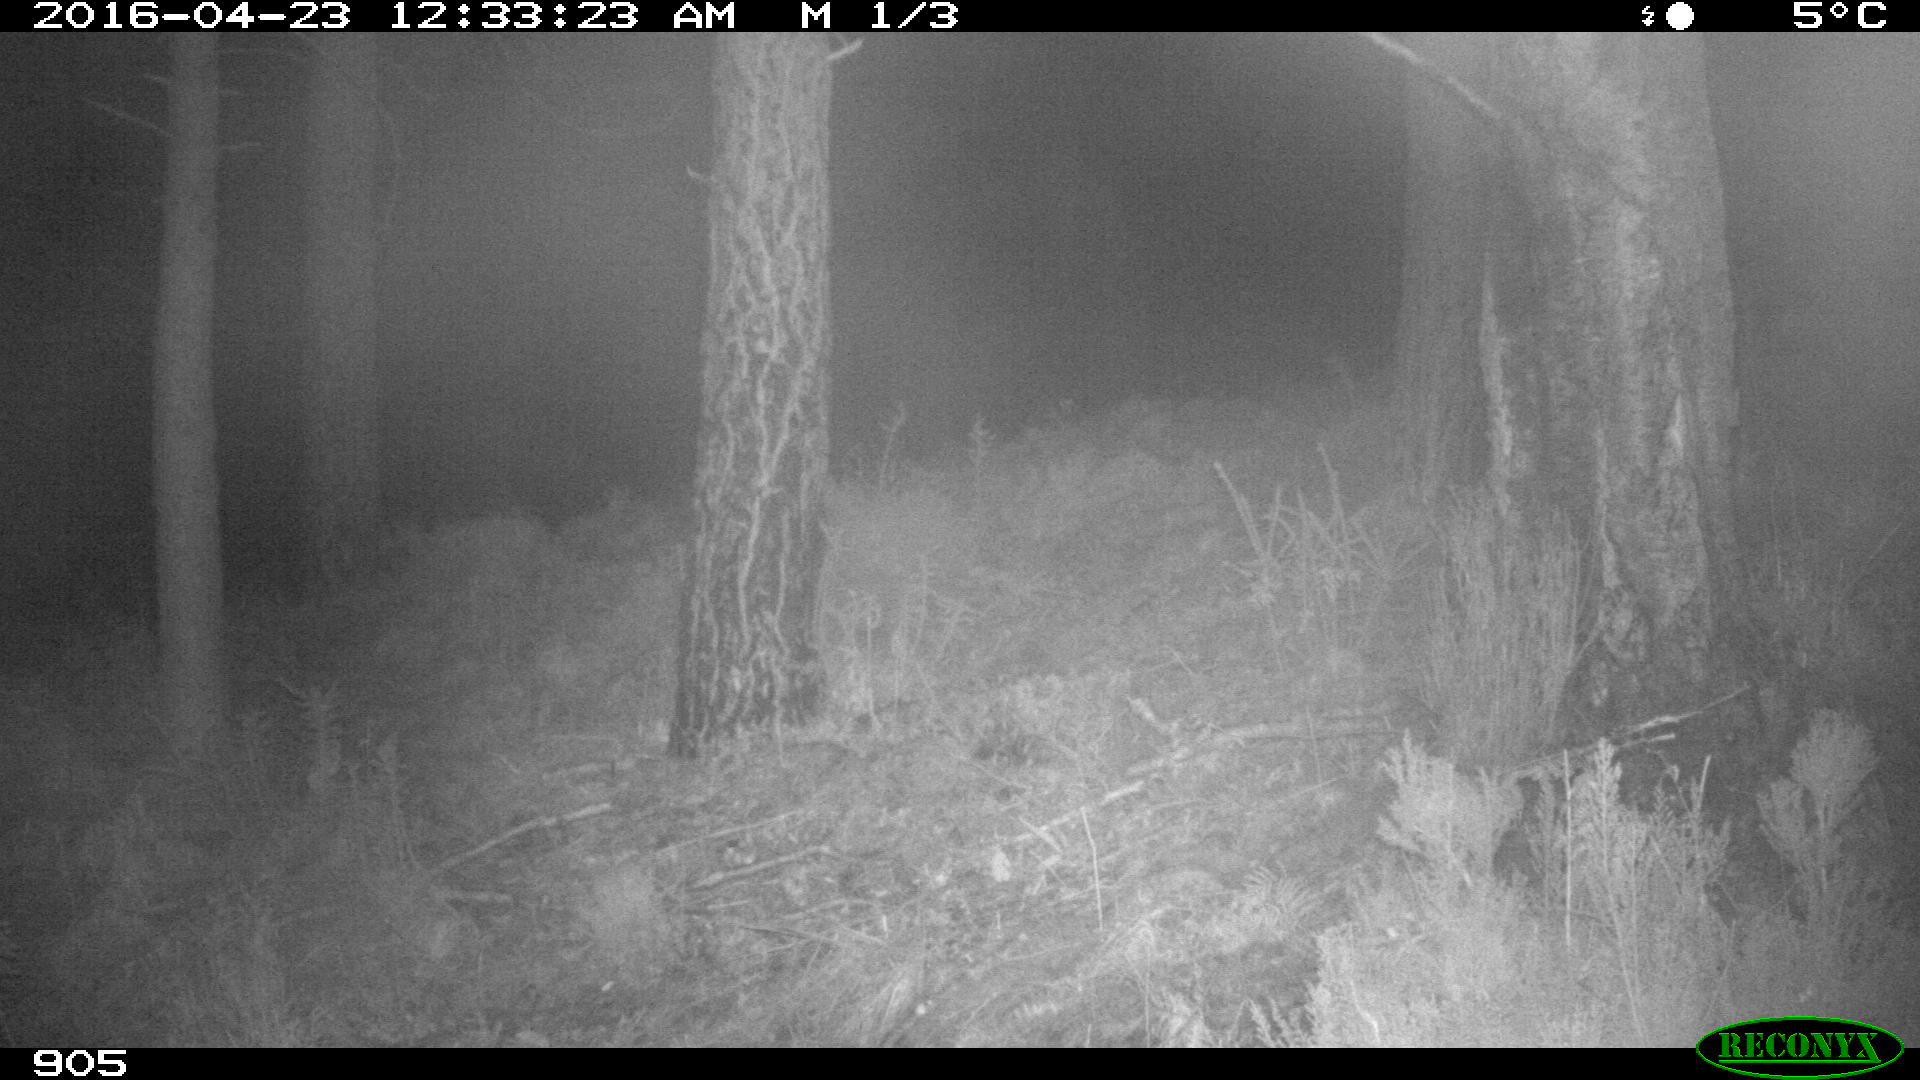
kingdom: Animalia
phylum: Chordata
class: Mammalia
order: Carnivora
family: Canidae
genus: Vulpes
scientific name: Vulpes vulpes
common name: Red fox
